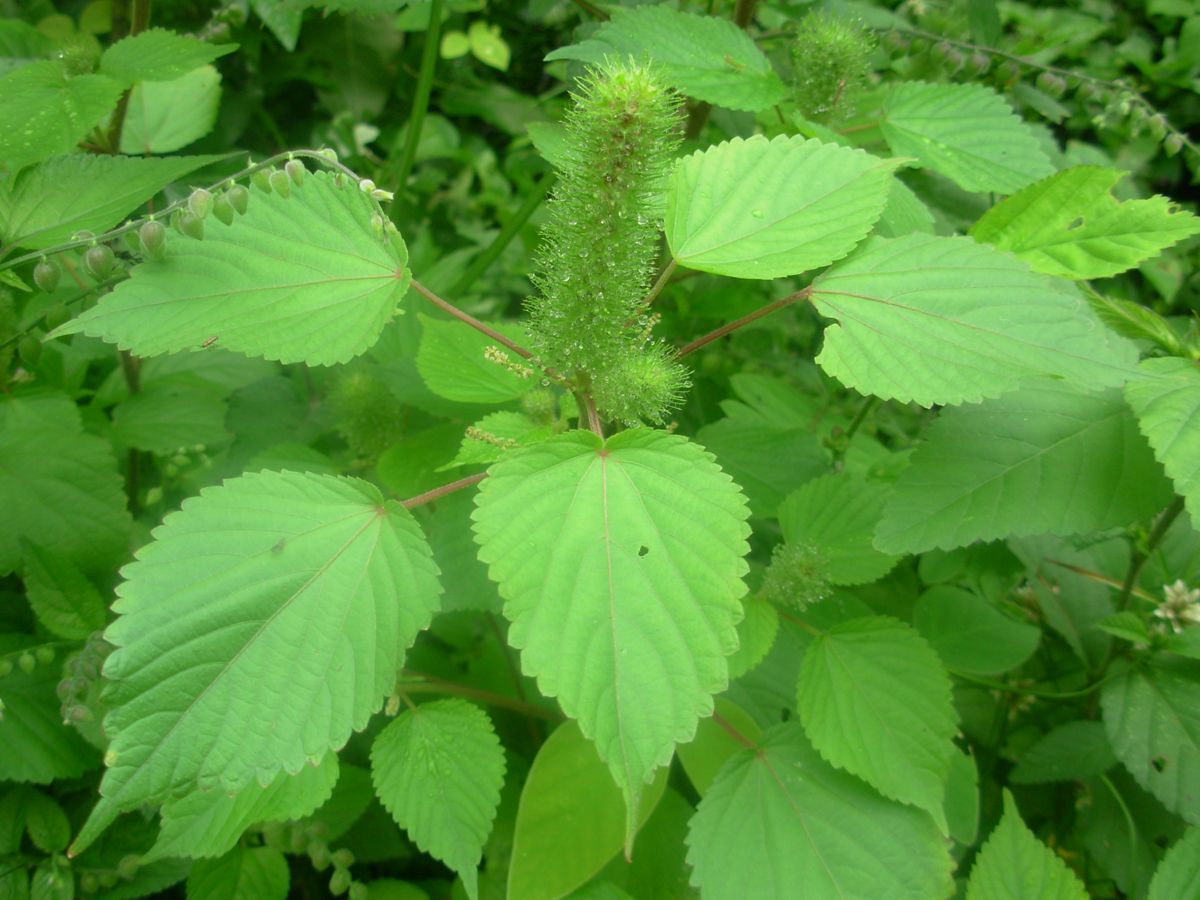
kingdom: Plantae
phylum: Tracheophyta
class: Magnoliopsida
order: Malpighiales
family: Euphorbiaceae
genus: Acalypha
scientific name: Acalypha alopecuroidea
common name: Foxtail copperleaf
